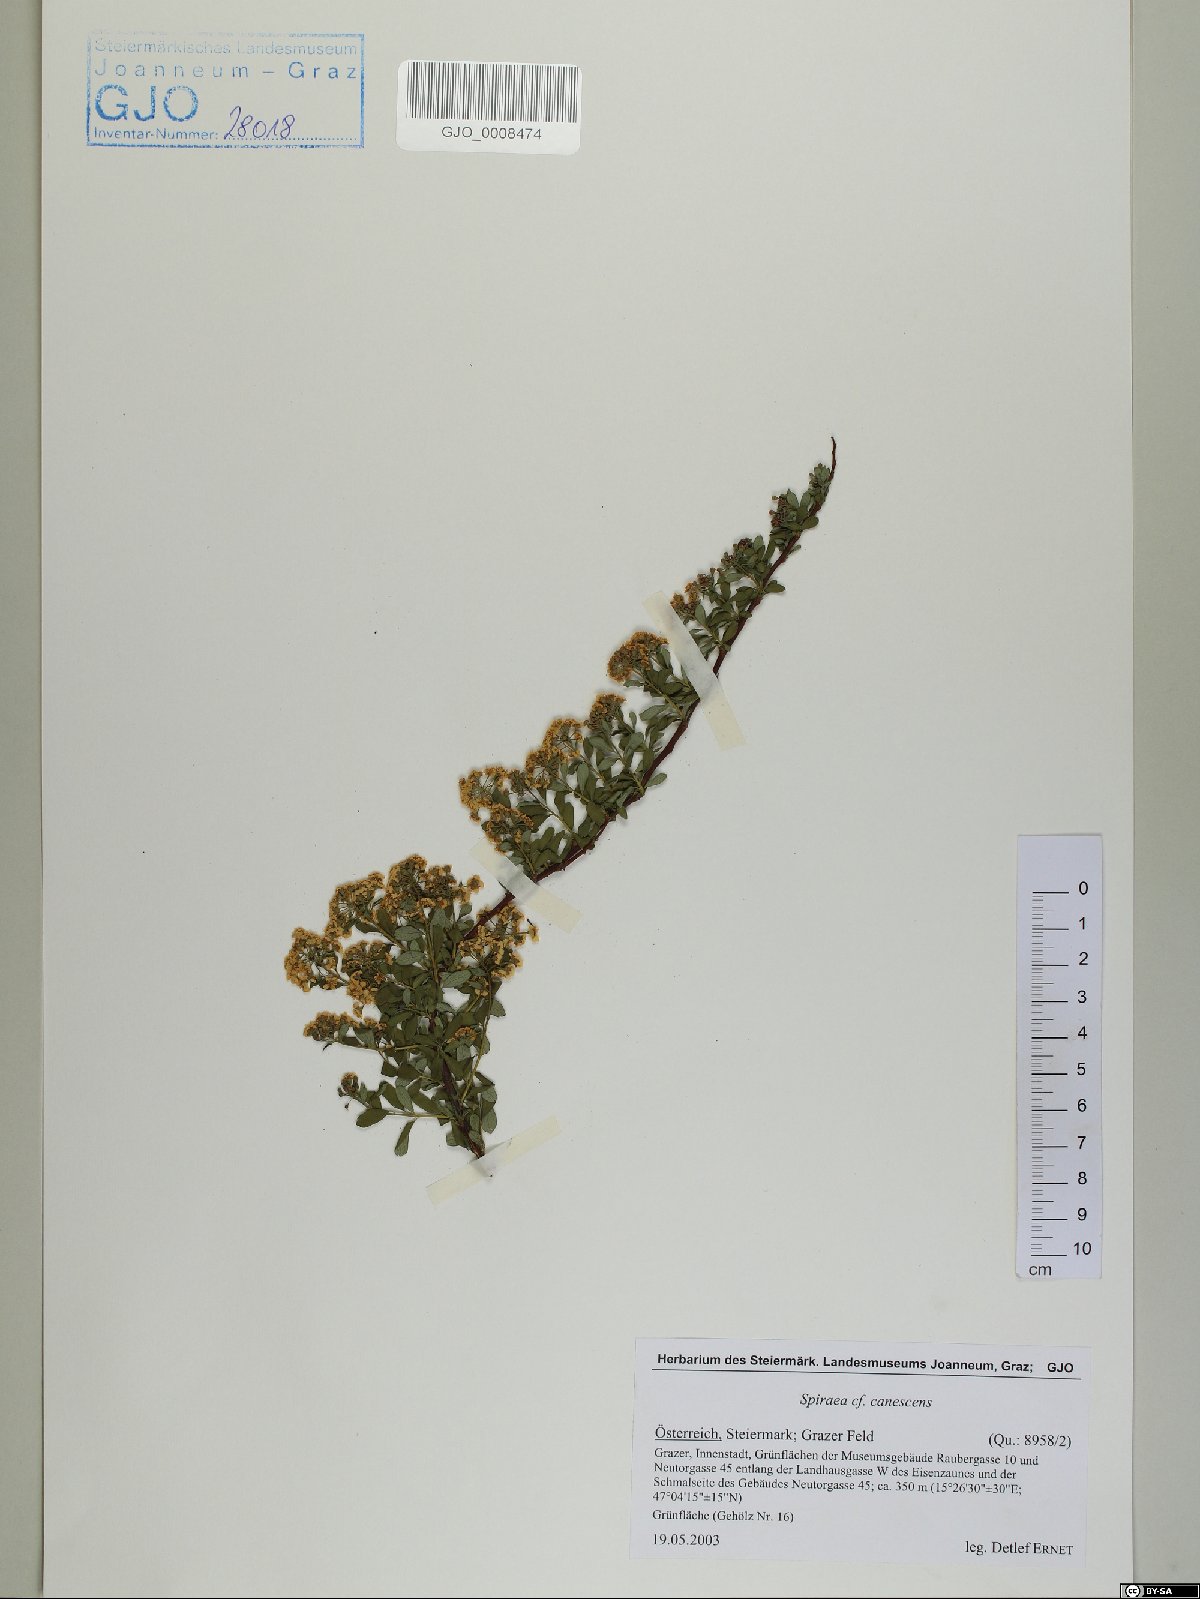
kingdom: Plantae
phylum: Tracheophyta
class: Magnoliopsida
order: Rosales
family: Rosaceae
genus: Spiraea
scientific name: Spiraea canescens
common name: Himalayan spiraea
